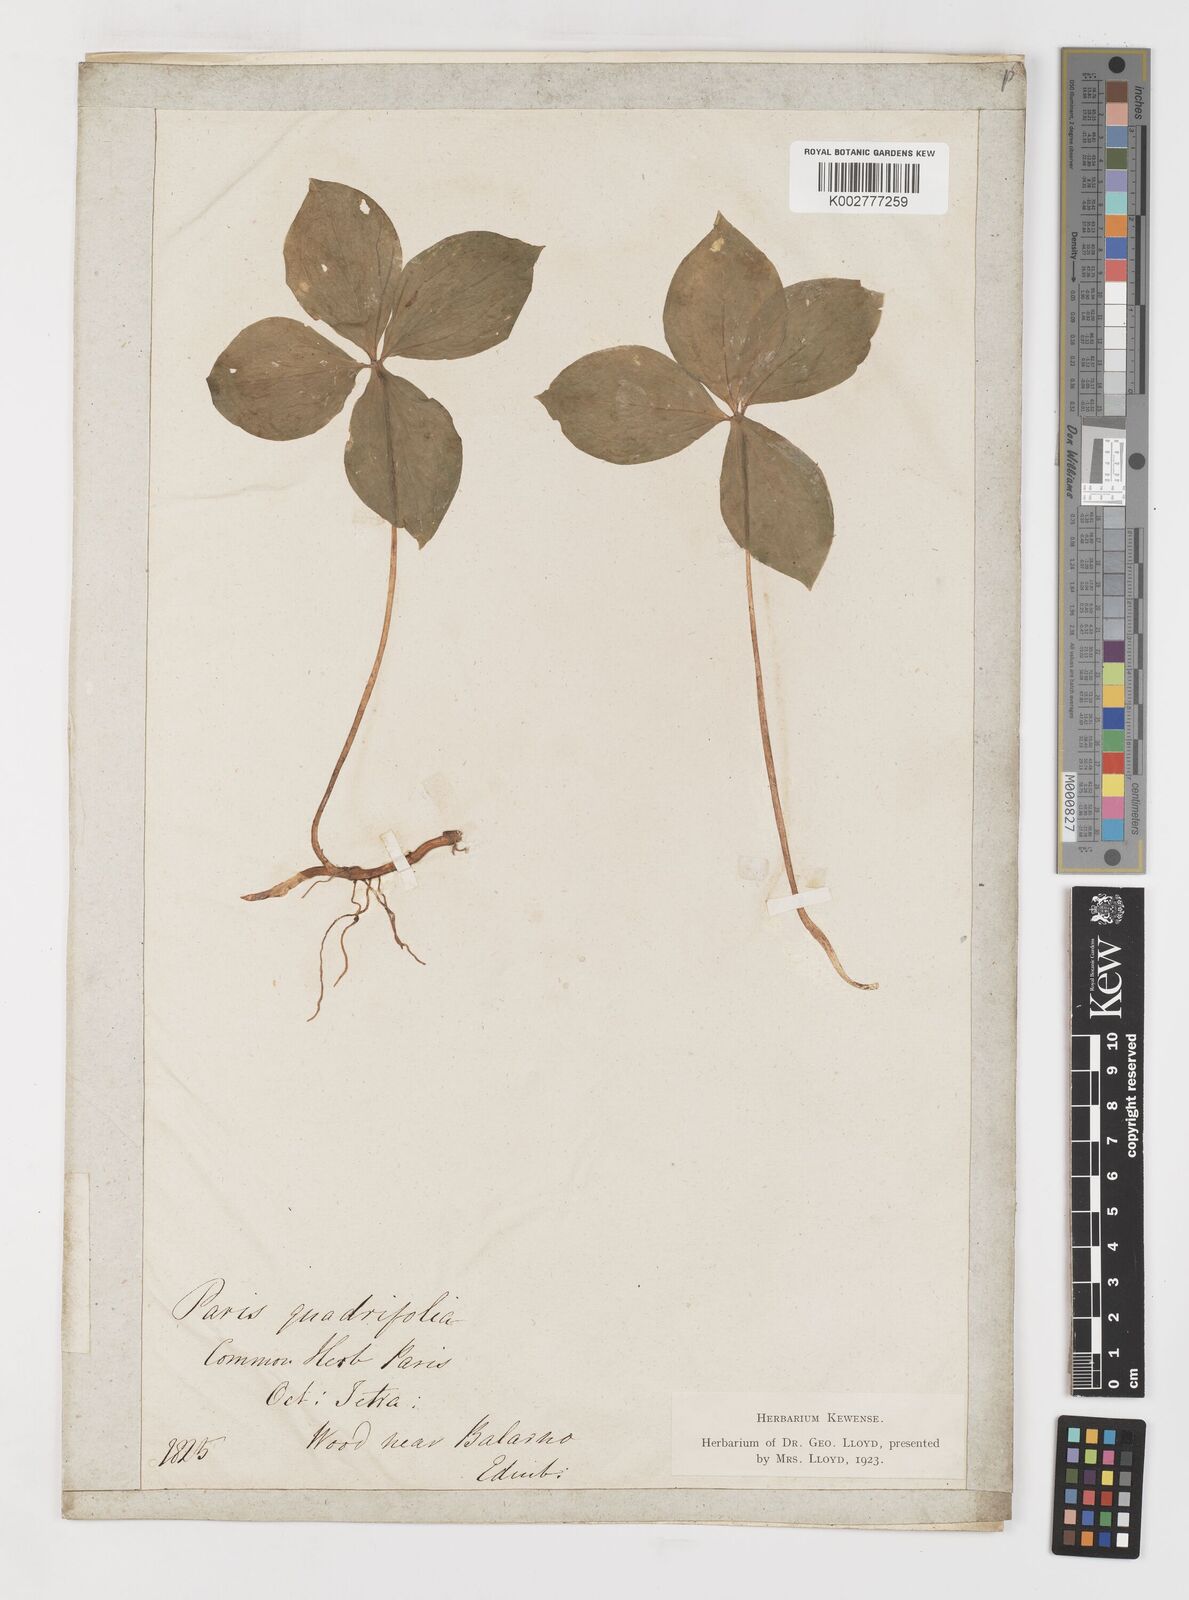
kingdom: Plantae
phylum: Tracheophyta
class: Liliopsida
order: Liliales
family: Melanthiaceae
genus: Paris
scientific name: Paris quadrifolia
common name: Herb-paris
